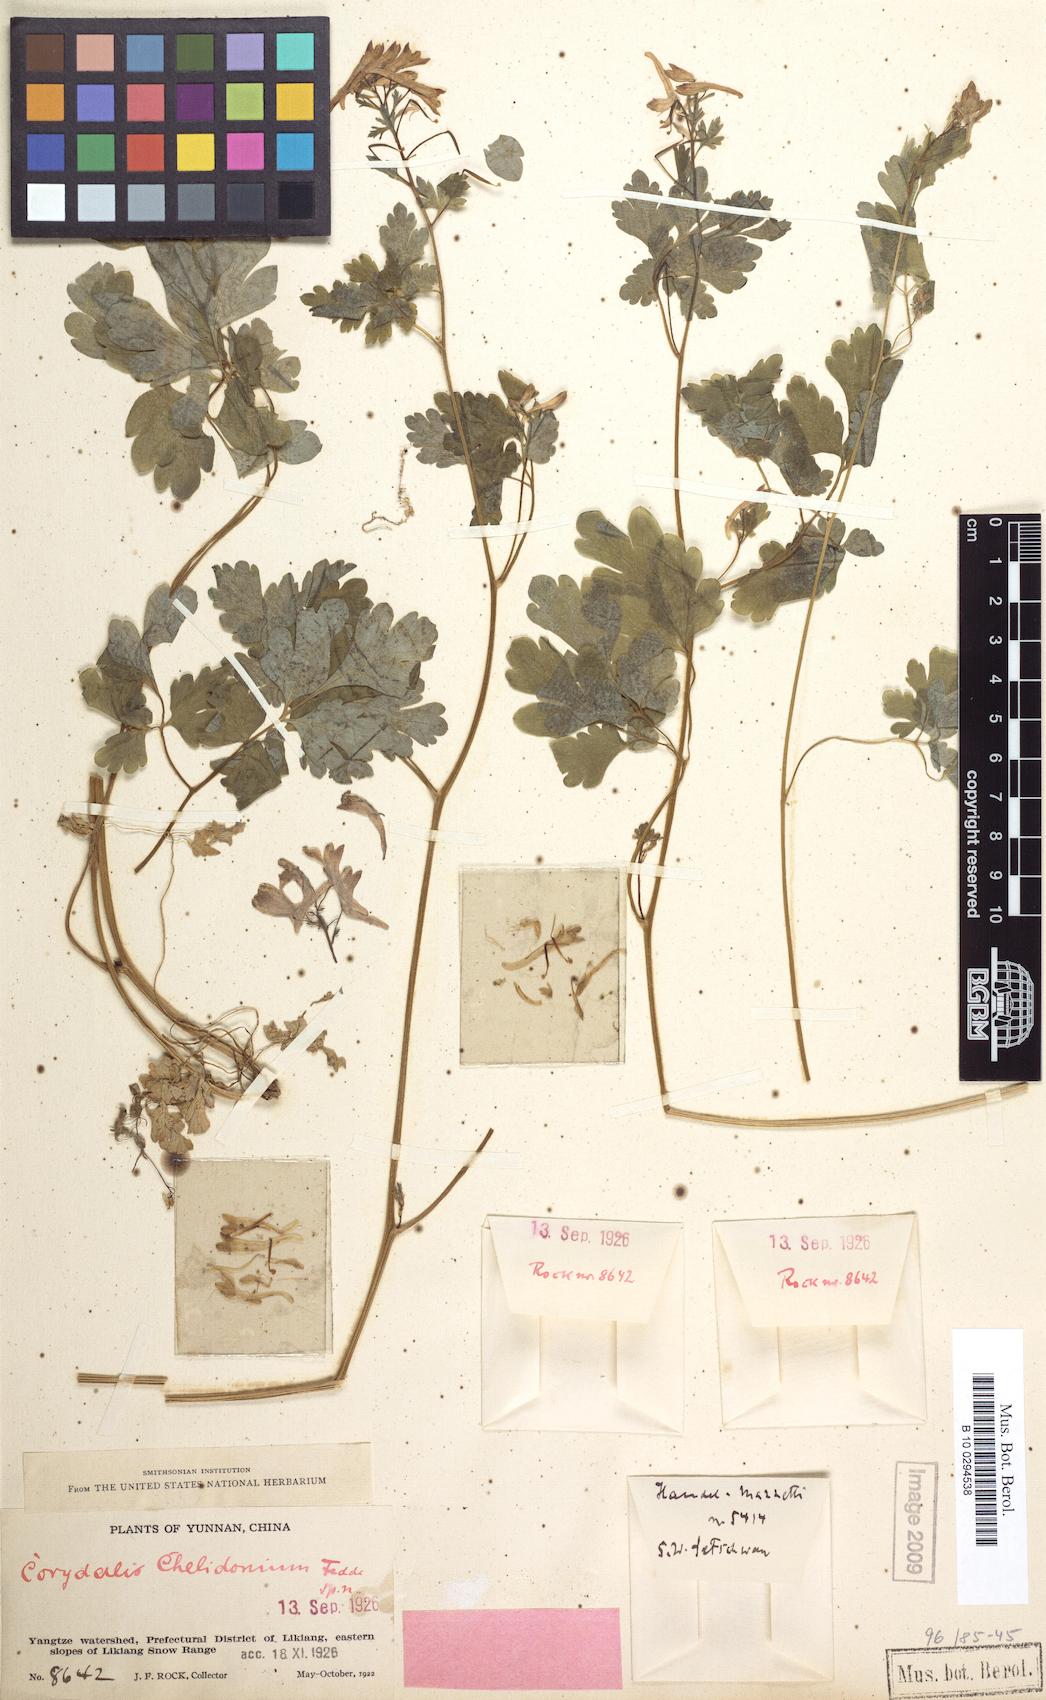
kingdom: Plantae
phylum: Tracheophyta
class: Magnoliopsida
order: Ranunculales
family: Papaveraceae
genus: Corydalis
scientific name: Corydalis stenantha
